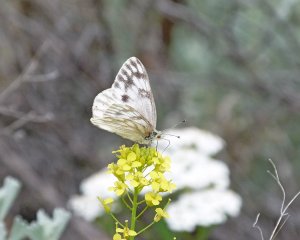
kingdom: Animalia
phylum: Arthropoda
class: Insecta
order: Lepidoptera
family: Pieridae
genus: Pontia
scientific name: Pontia protodice
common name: Checkered White
